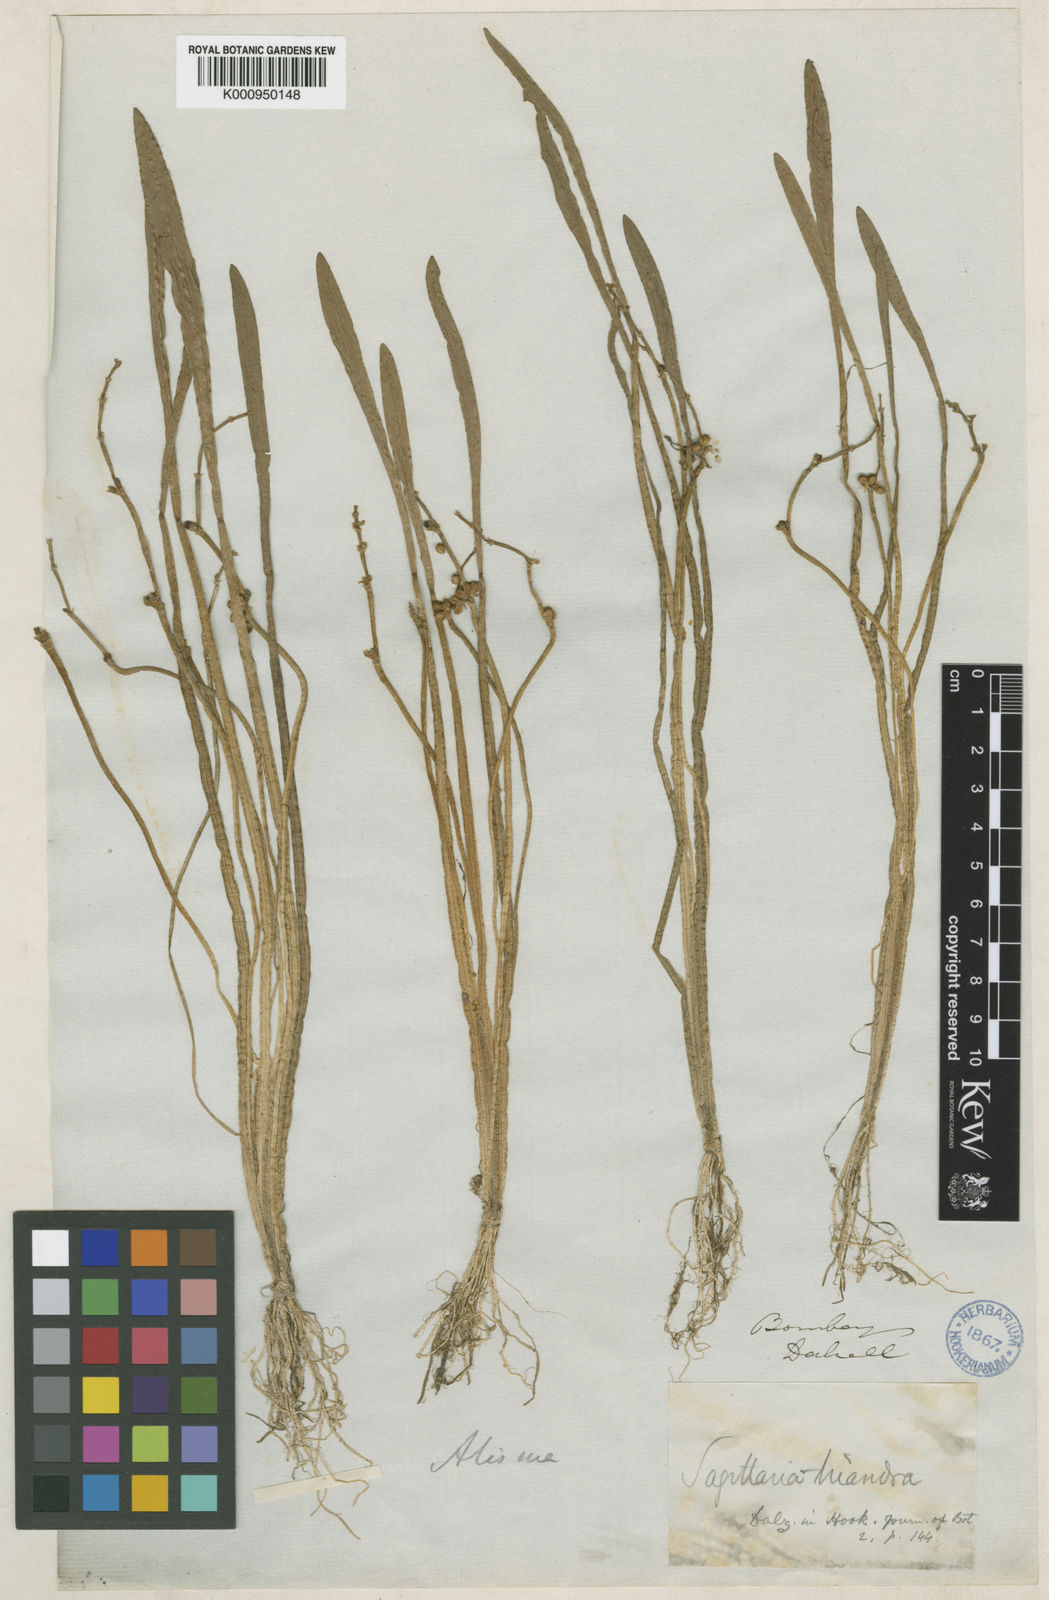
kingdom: Plantae
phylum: Tracheophyta
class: Liliopsida
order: Alismatales
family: Alismataceae
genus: Wiesneria
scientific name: Wiesneria triandra
